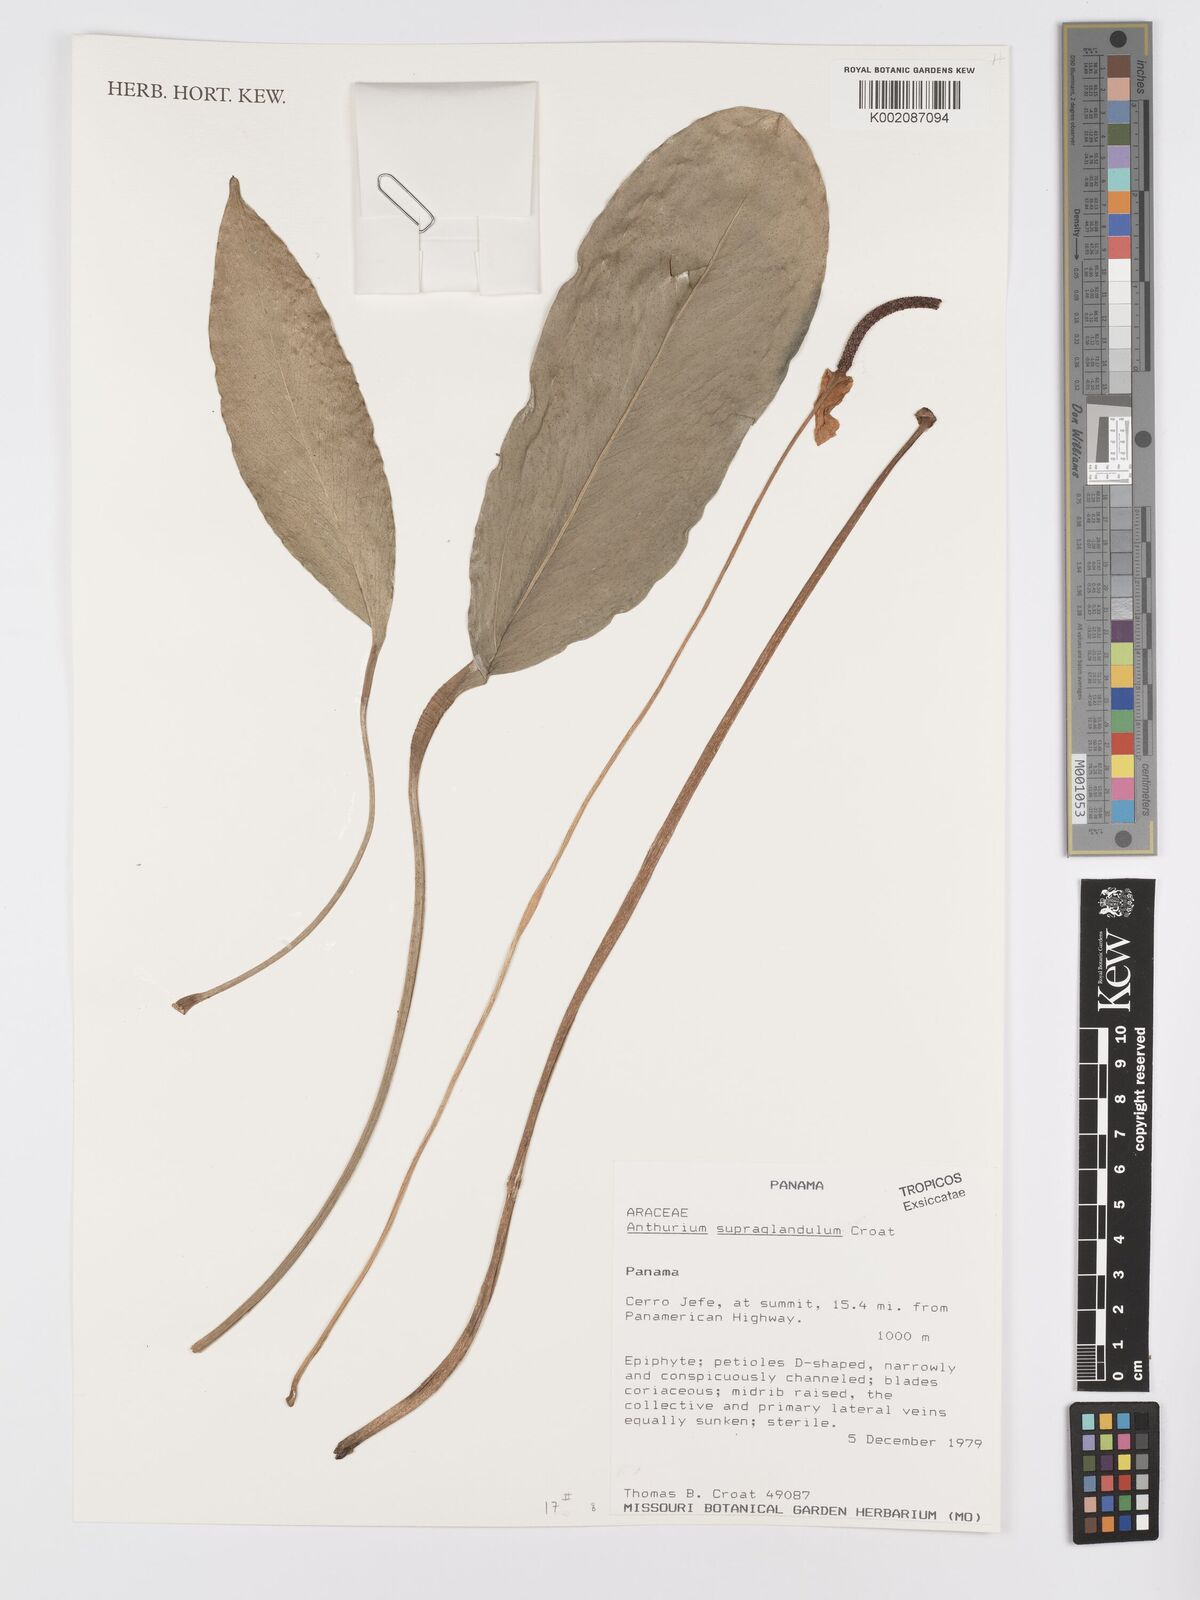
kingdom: Plantae
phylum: Tracheophyta
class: Liliopsida
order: Alismatales
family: Araceae
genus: Anthurium
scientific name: Anthurium supraglandulum
